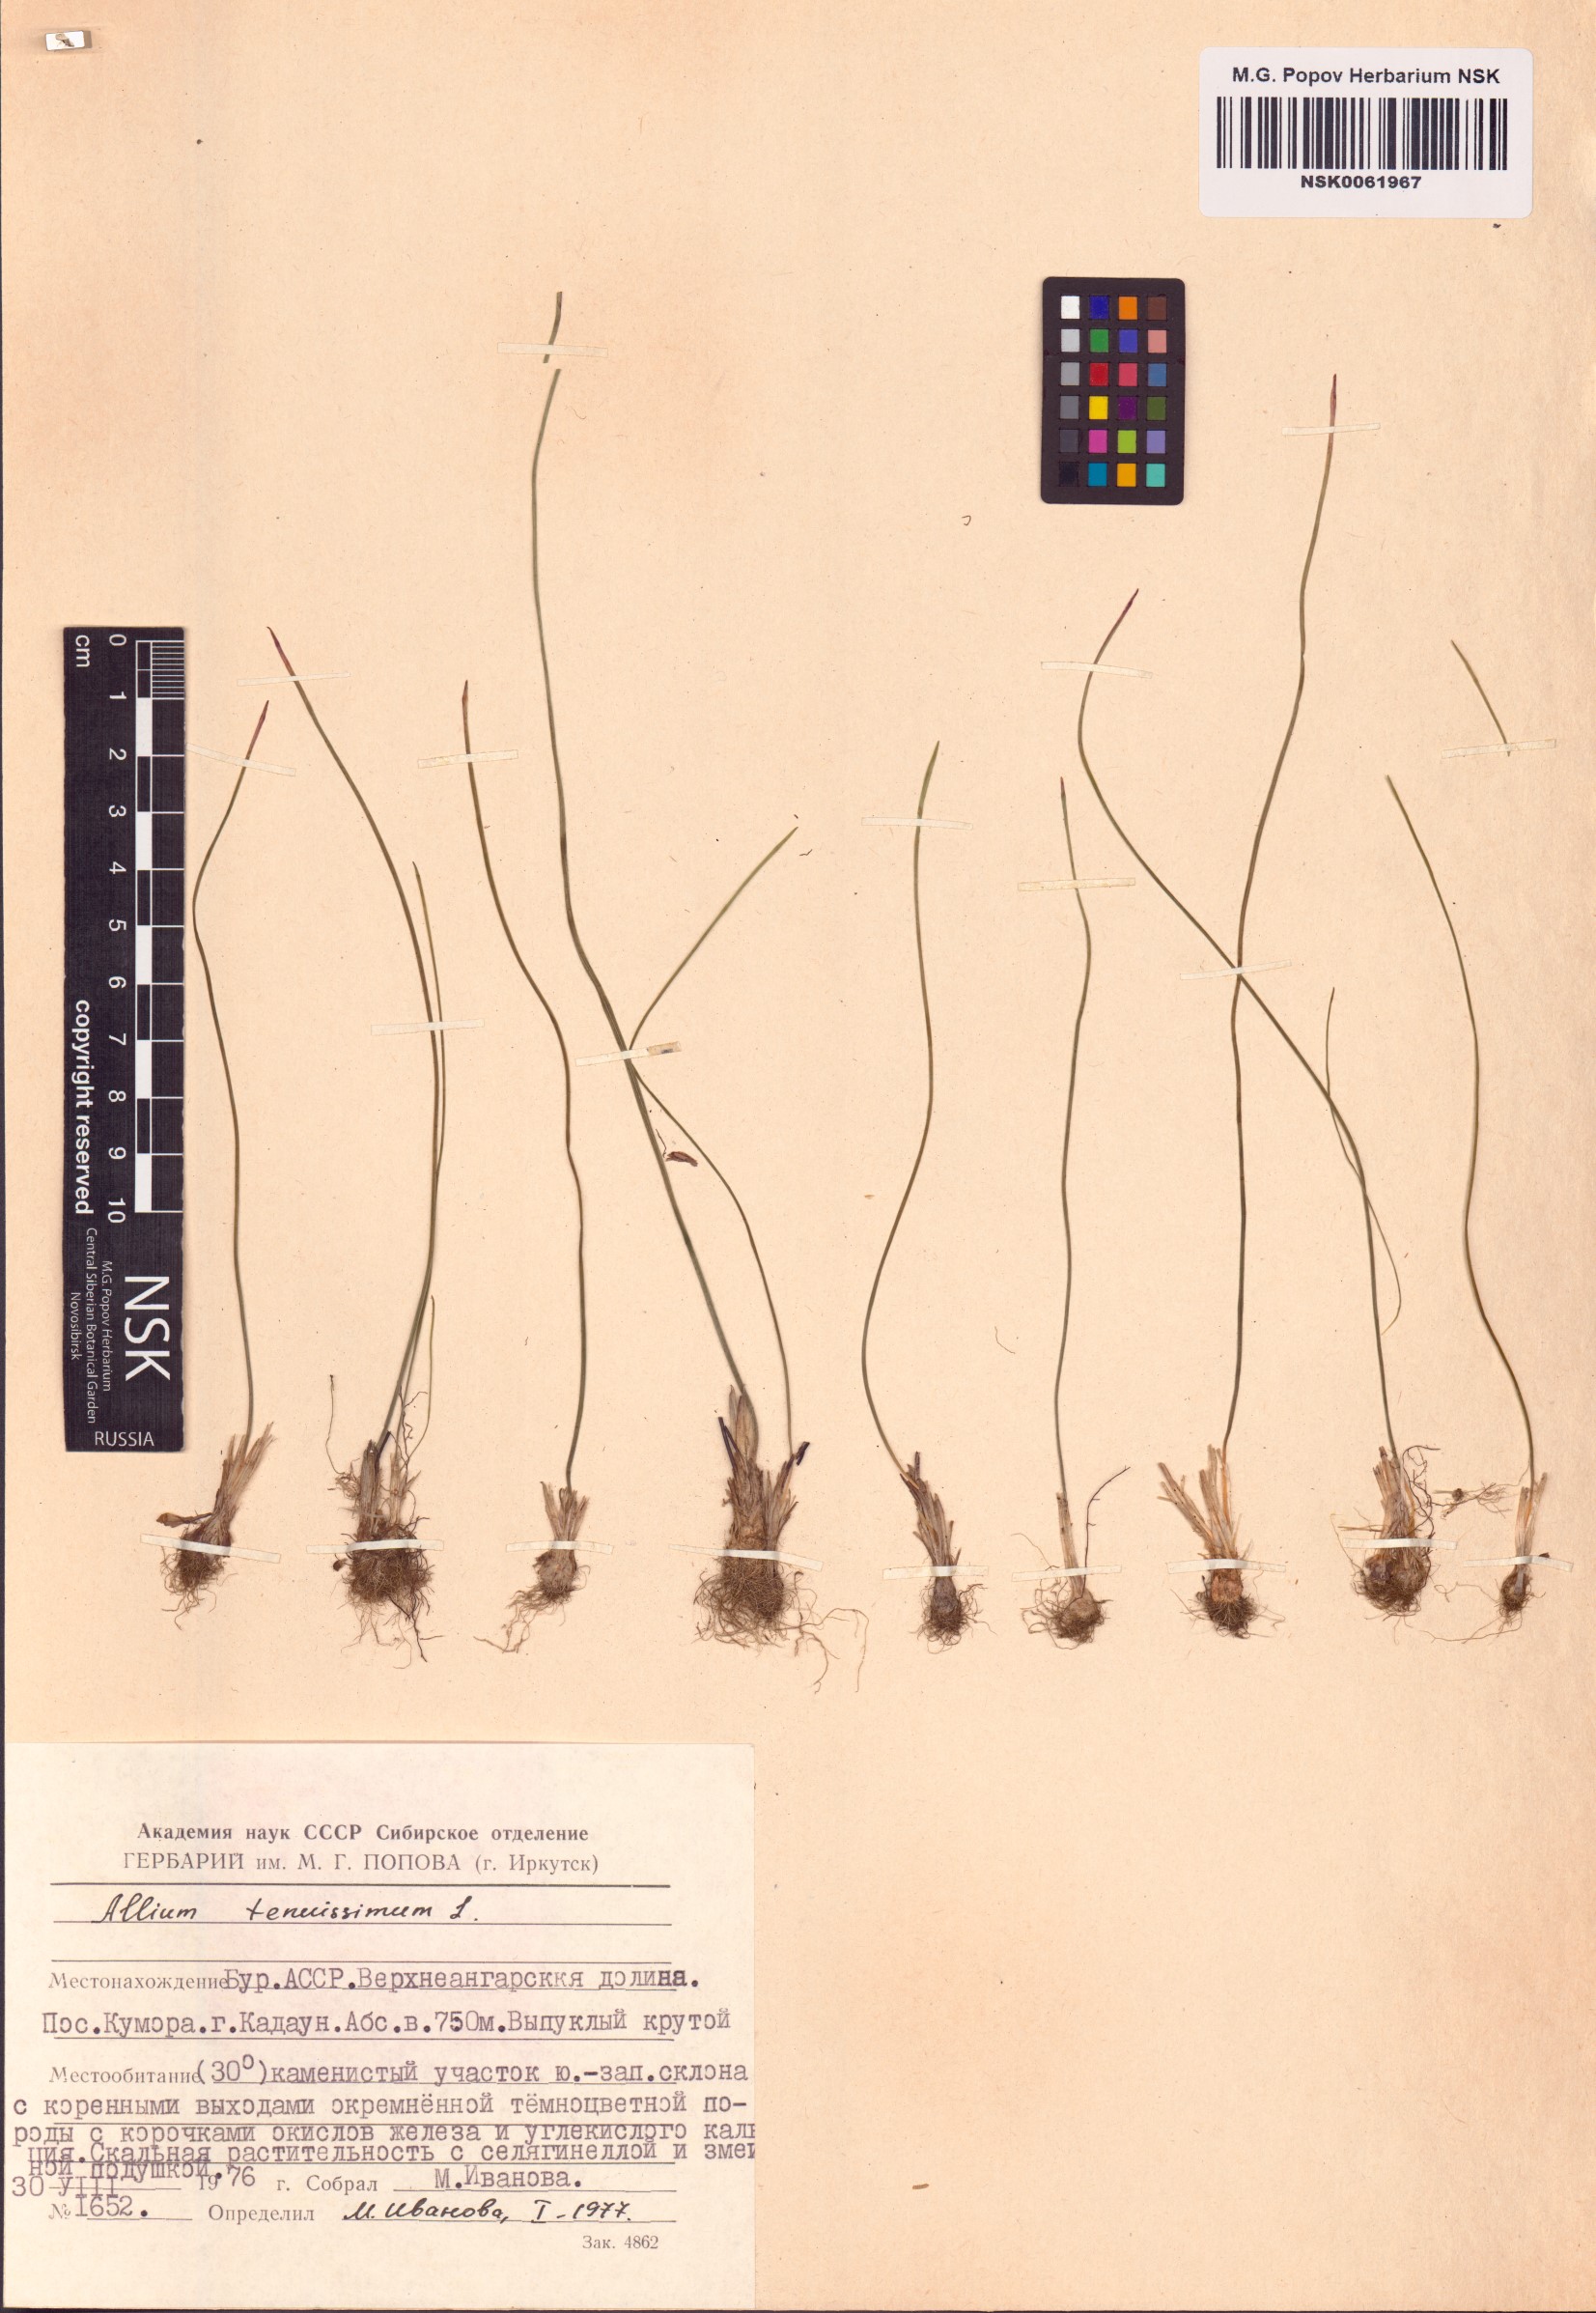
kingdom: Plantae
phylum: Tracheophyta
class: Liliopsida
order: Asparagales
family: Amaryllidaceae
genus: Allium
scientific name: Allium tenuissimum
